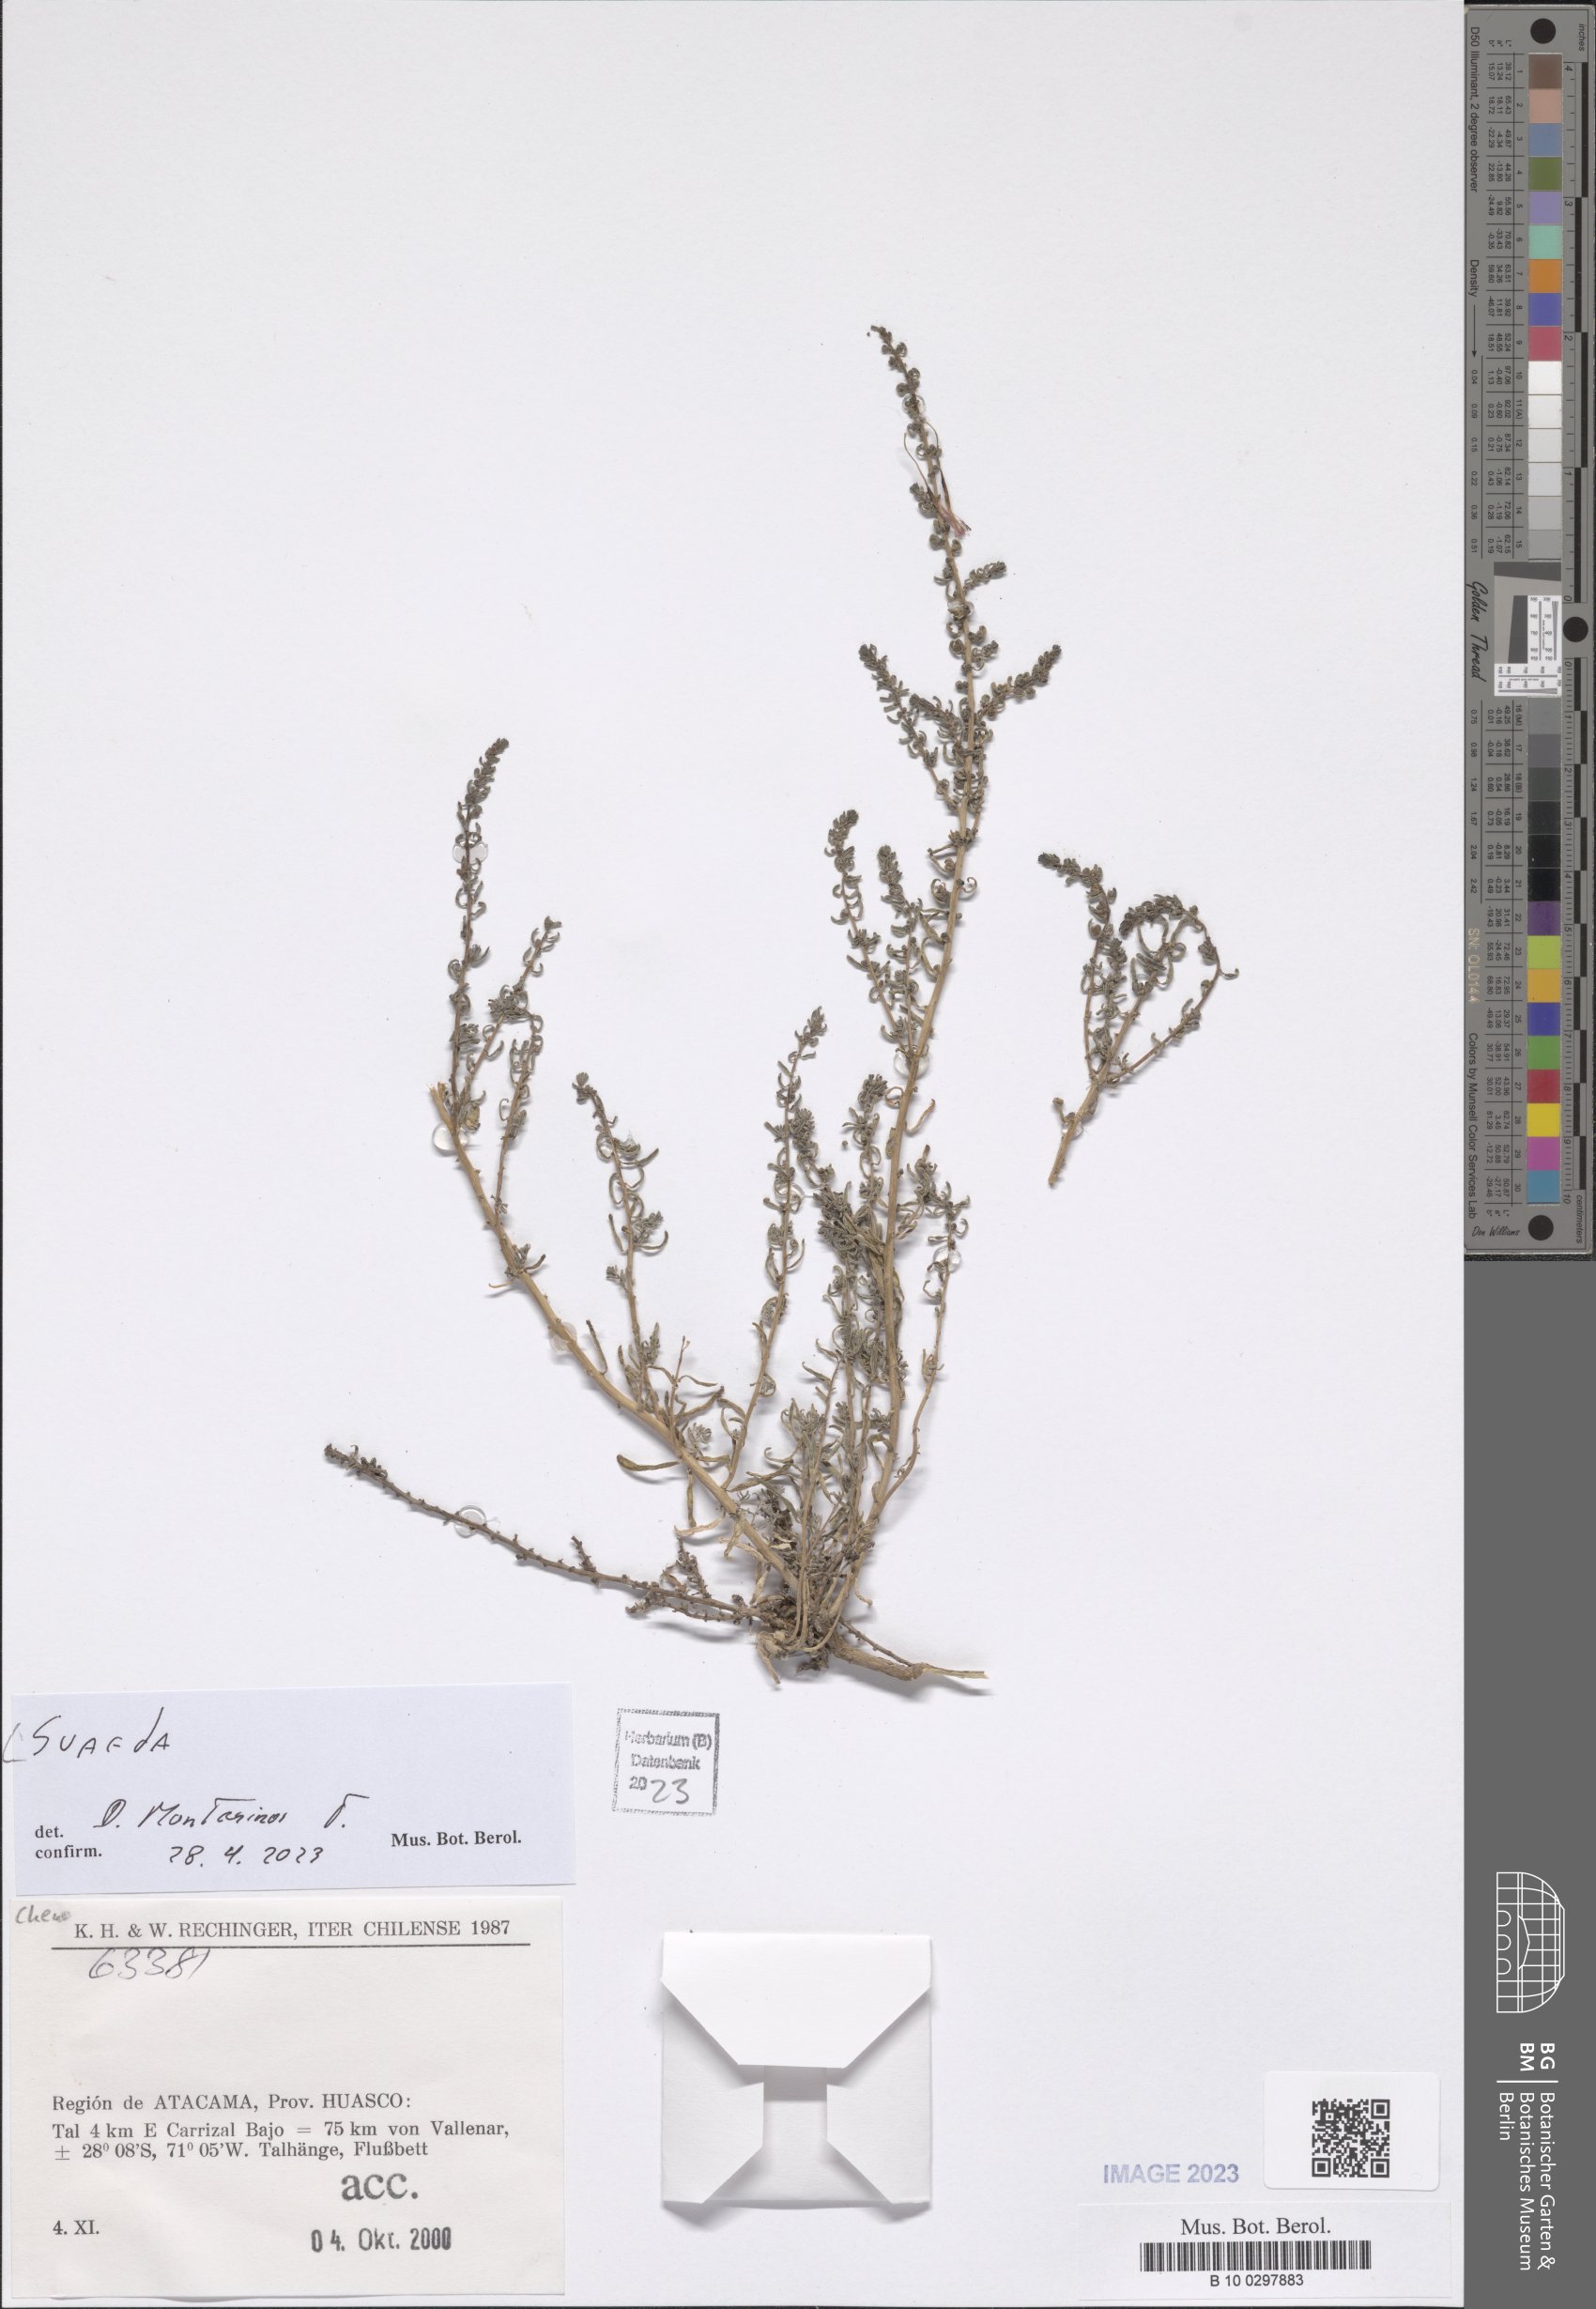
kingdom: Plantae
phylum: Tracheophyta
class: Magnoliopsida
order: Caryophyllales
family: Amaranthaceae
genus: Suaeda
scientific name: Suaeda
